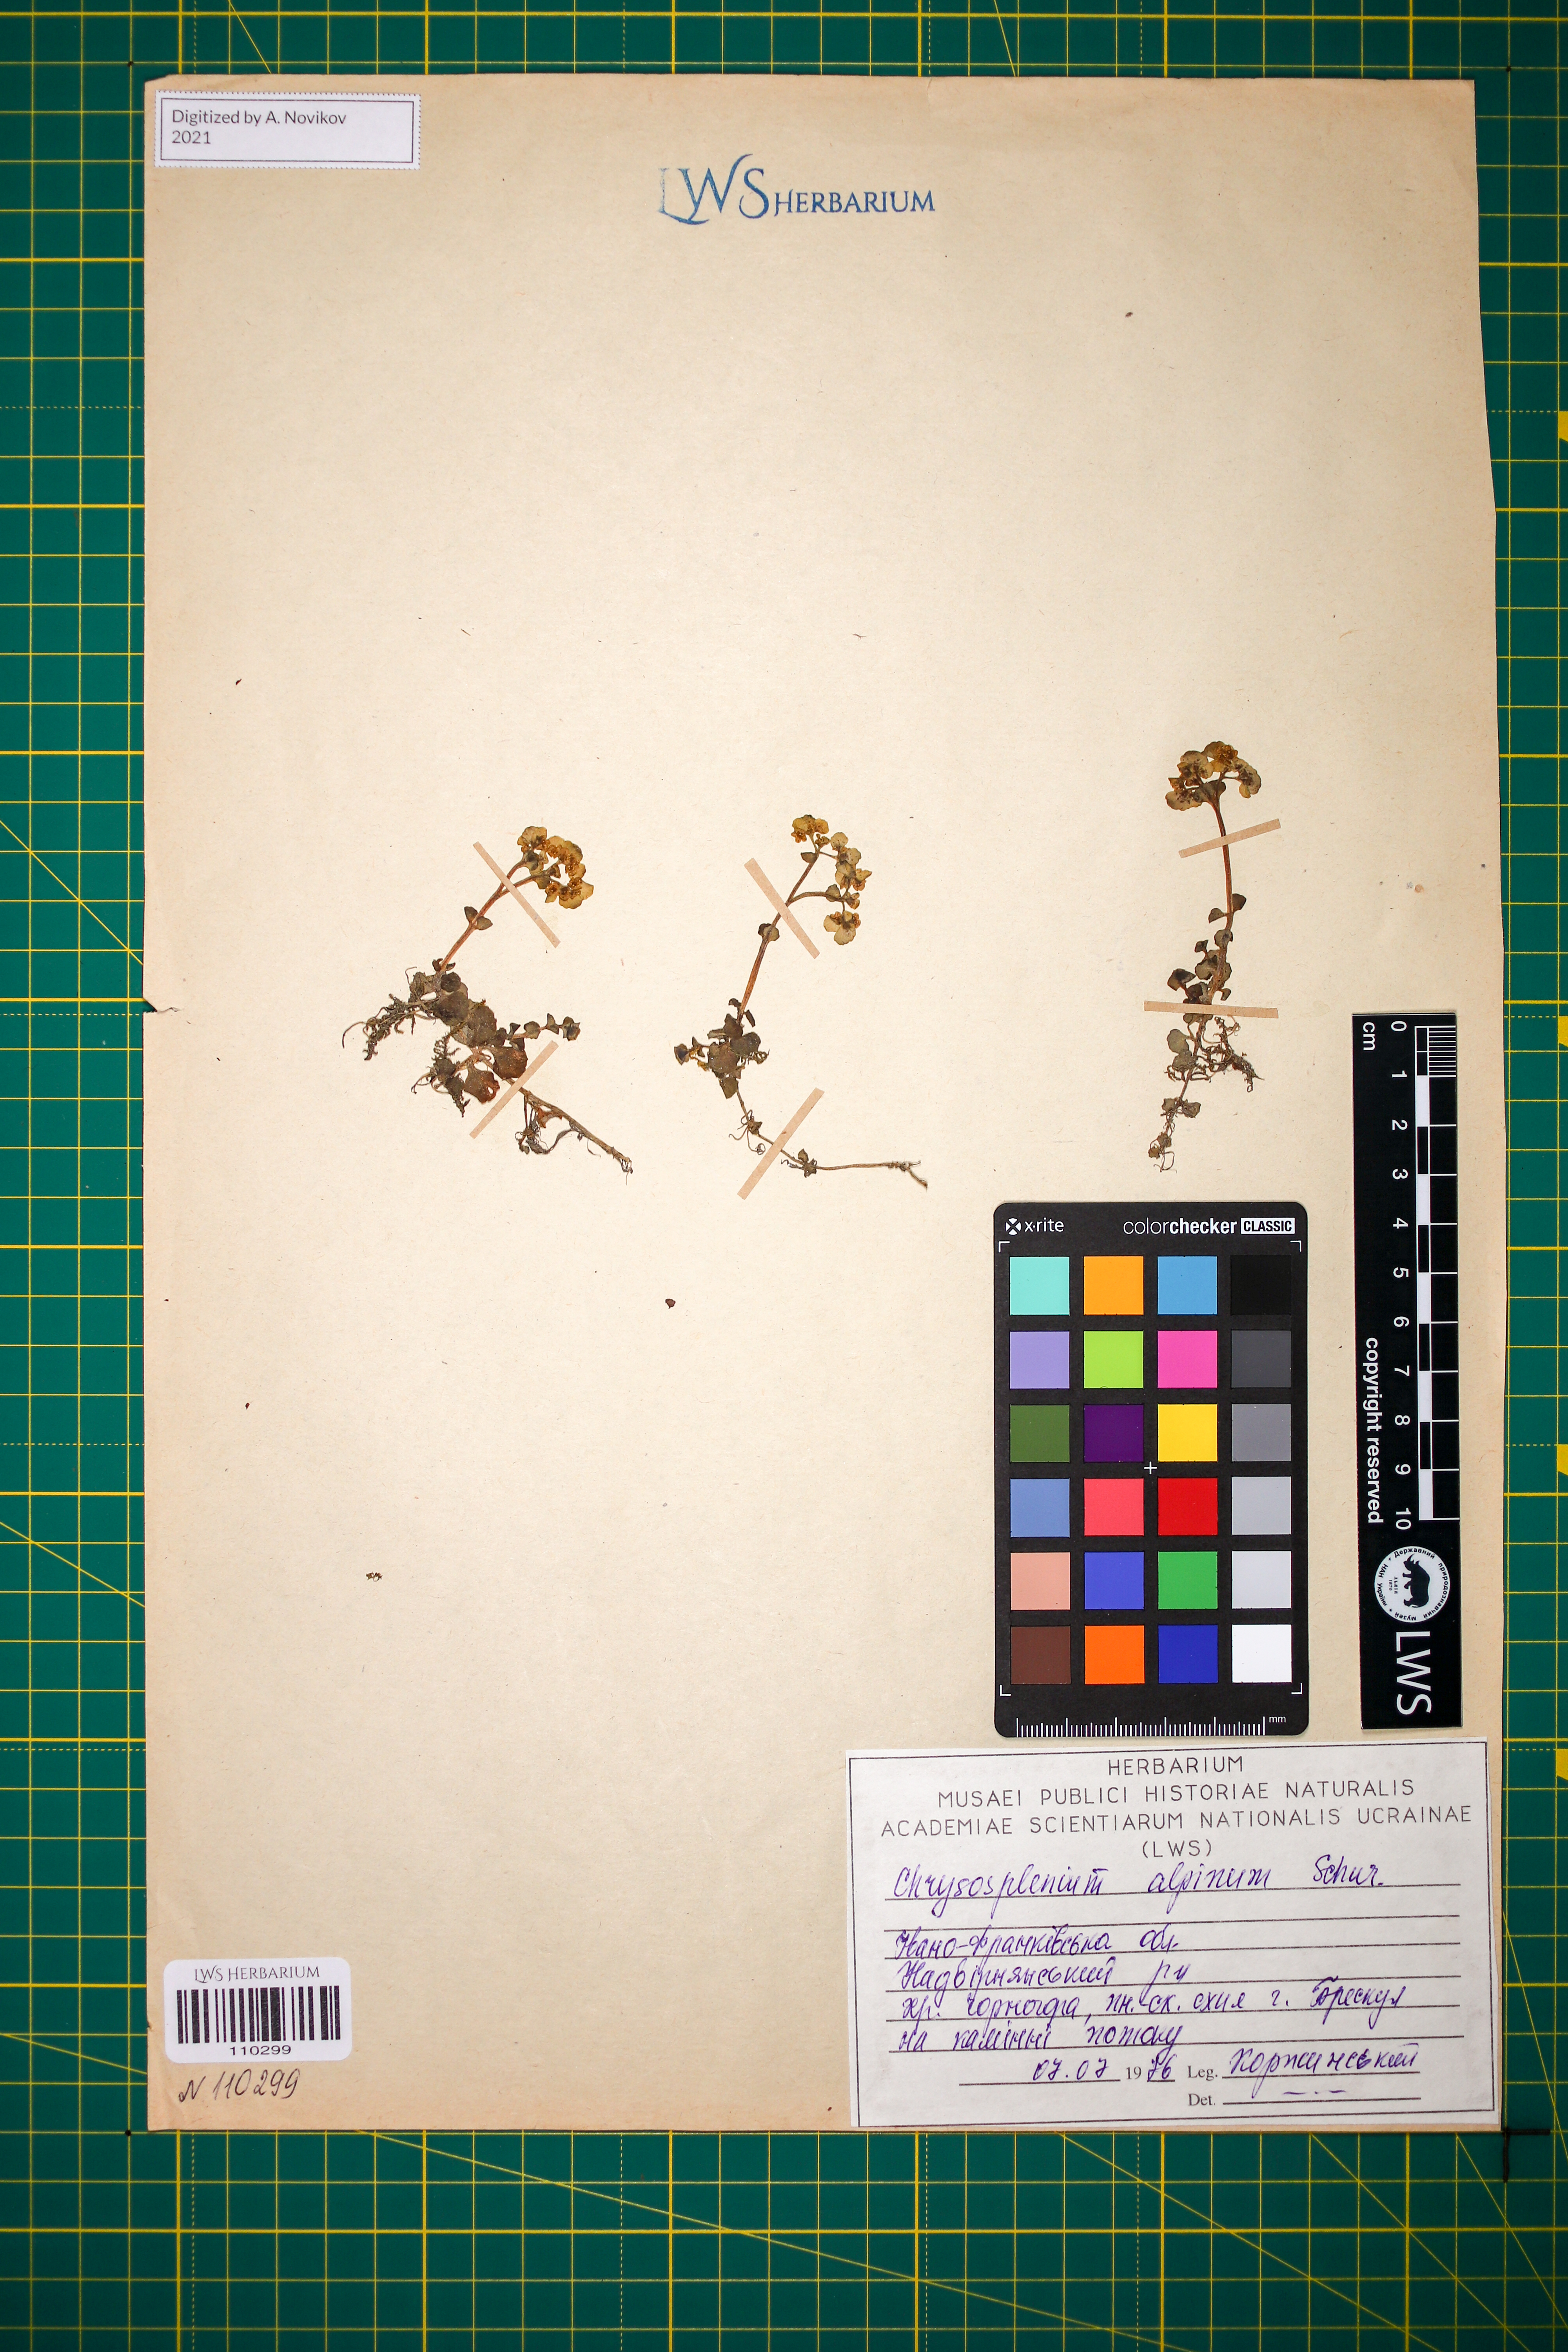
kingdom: Plantae
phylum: Tracheophyta
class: Magnoliopsida
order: Saxifragales
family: Saxifragaceae
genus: Chrysosplenium
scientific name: Chrysosplenium alpinum
